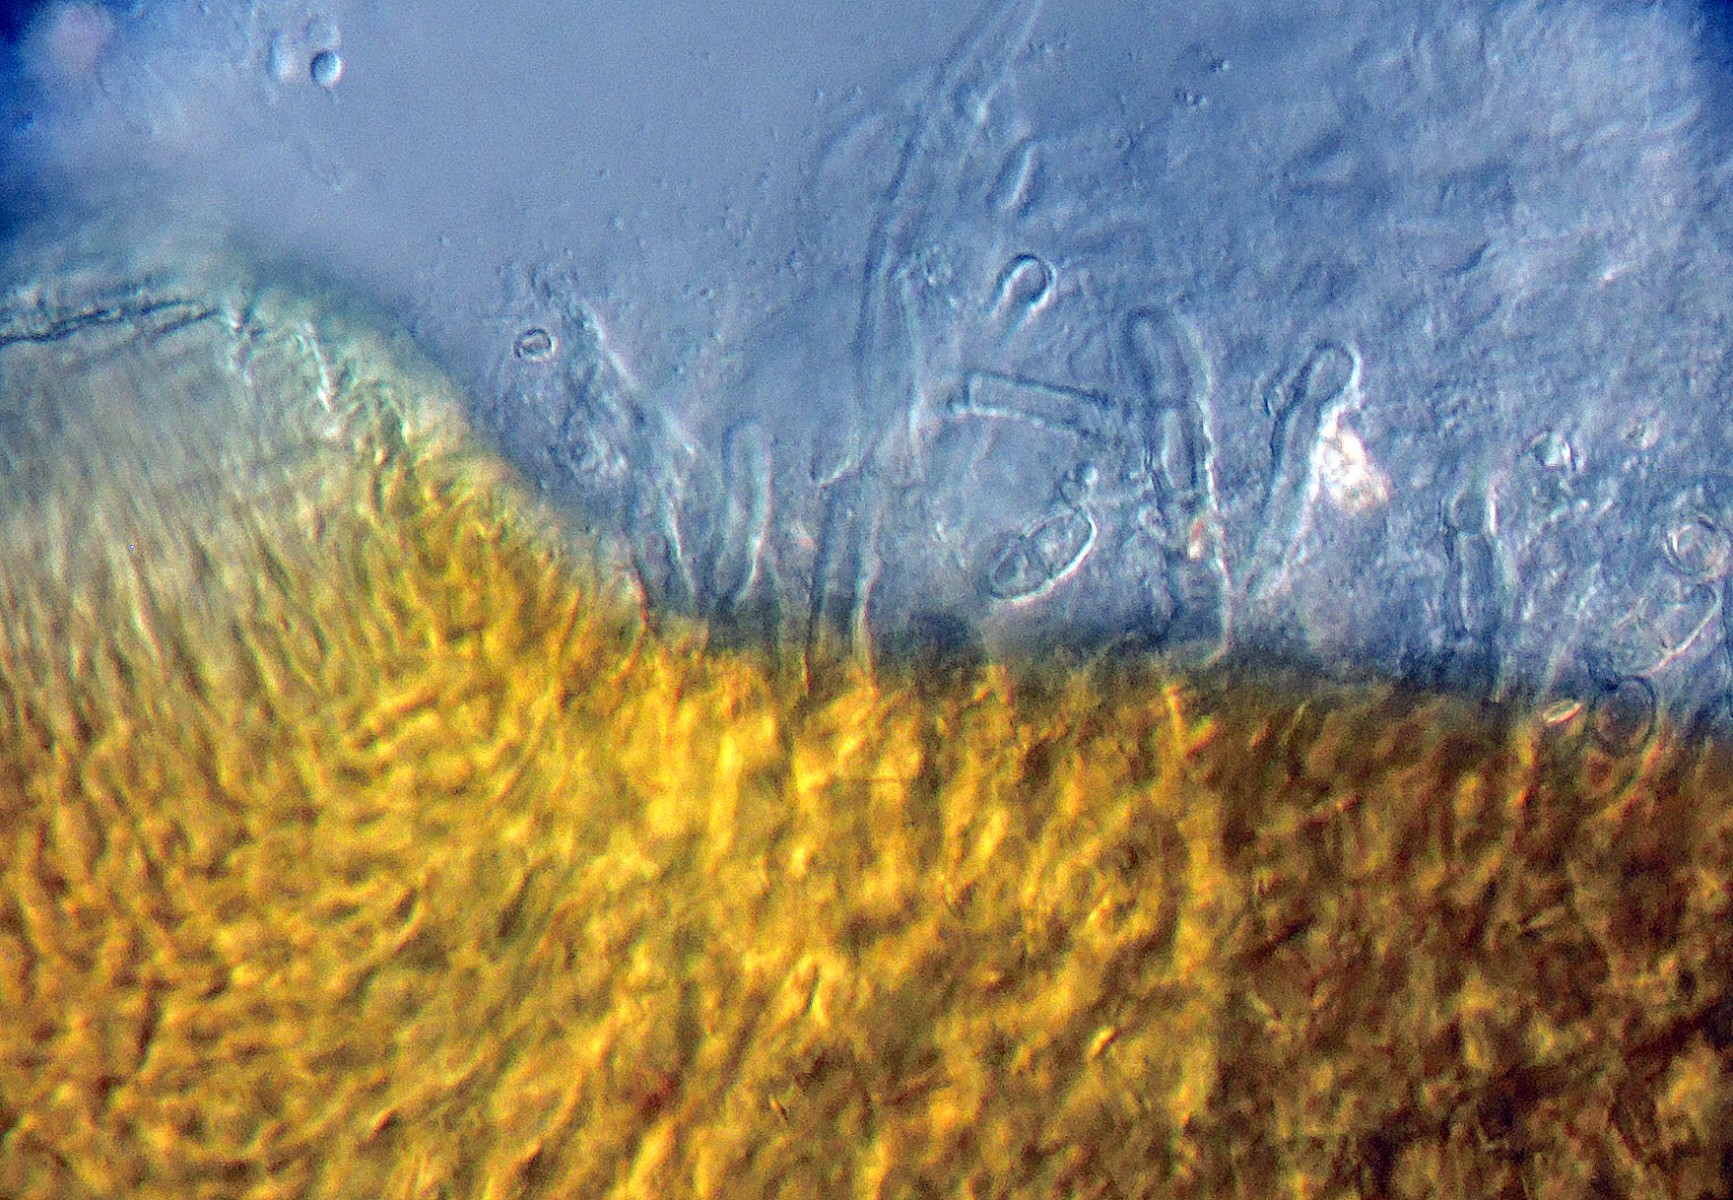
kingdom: Fungi
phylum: Ascomycota
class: Sordariomycetes
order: Hypocreales
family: Nectriaceae
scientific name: Nectriaceae
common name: cinnobersvampfamilien
